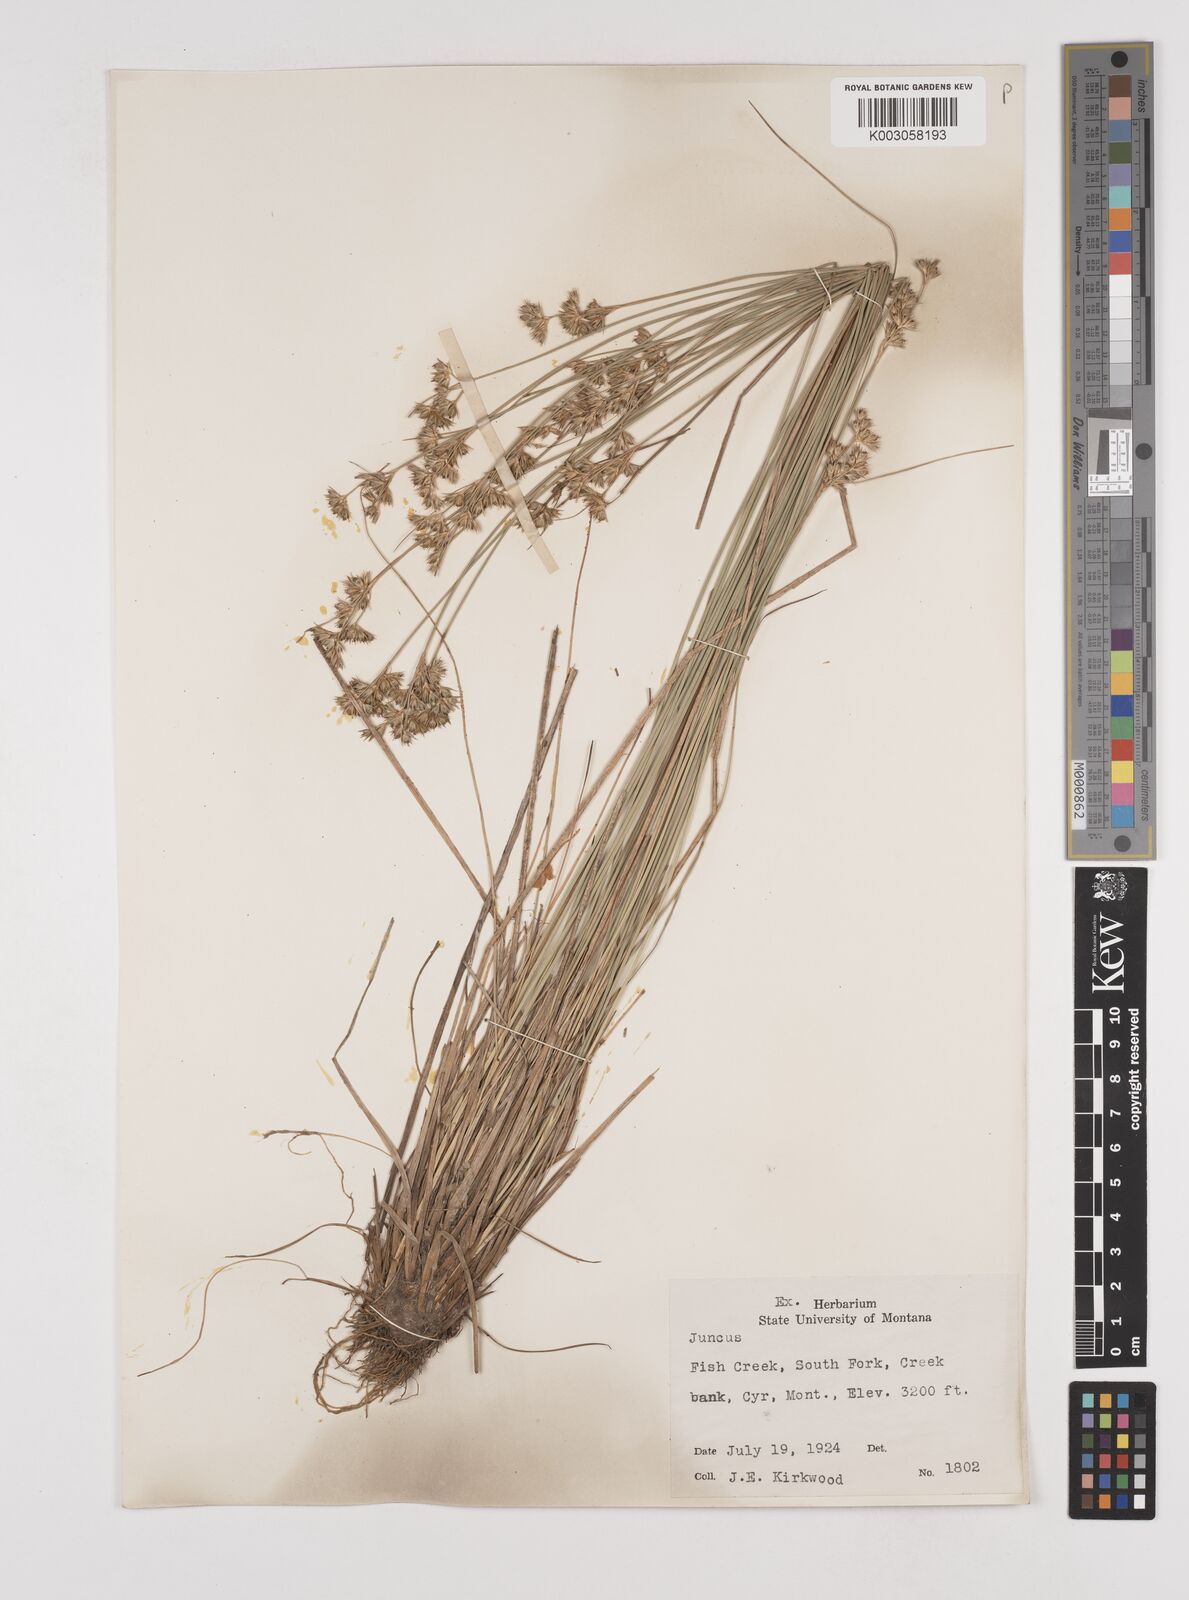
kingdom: Plantae
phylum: Tracheophyta
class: Liliopsida
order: Poales
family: Juncaceae
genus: Juncus
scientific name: Juncus
